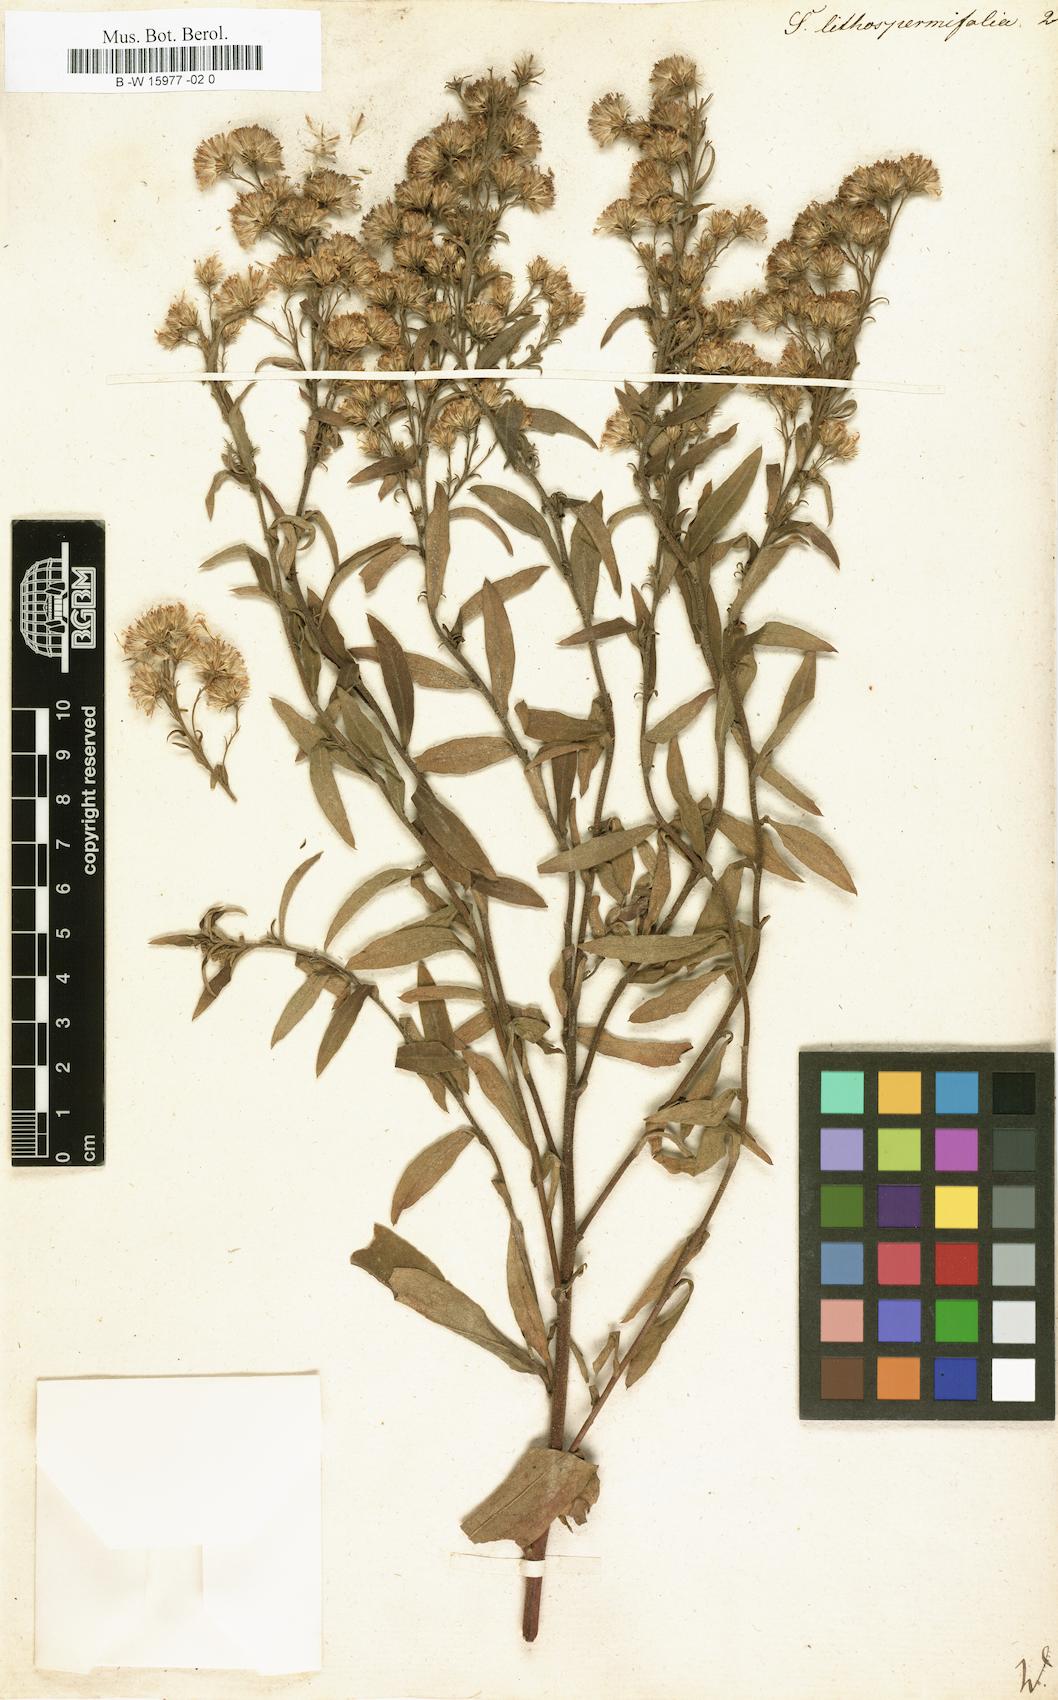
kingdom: Plantae
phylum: Tracheophyta
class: Magnoliopsida
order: Asterales
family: Asteraceae
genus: Solidago
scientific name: Solidago sempervirens
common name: Salt-marsh goldenrod
